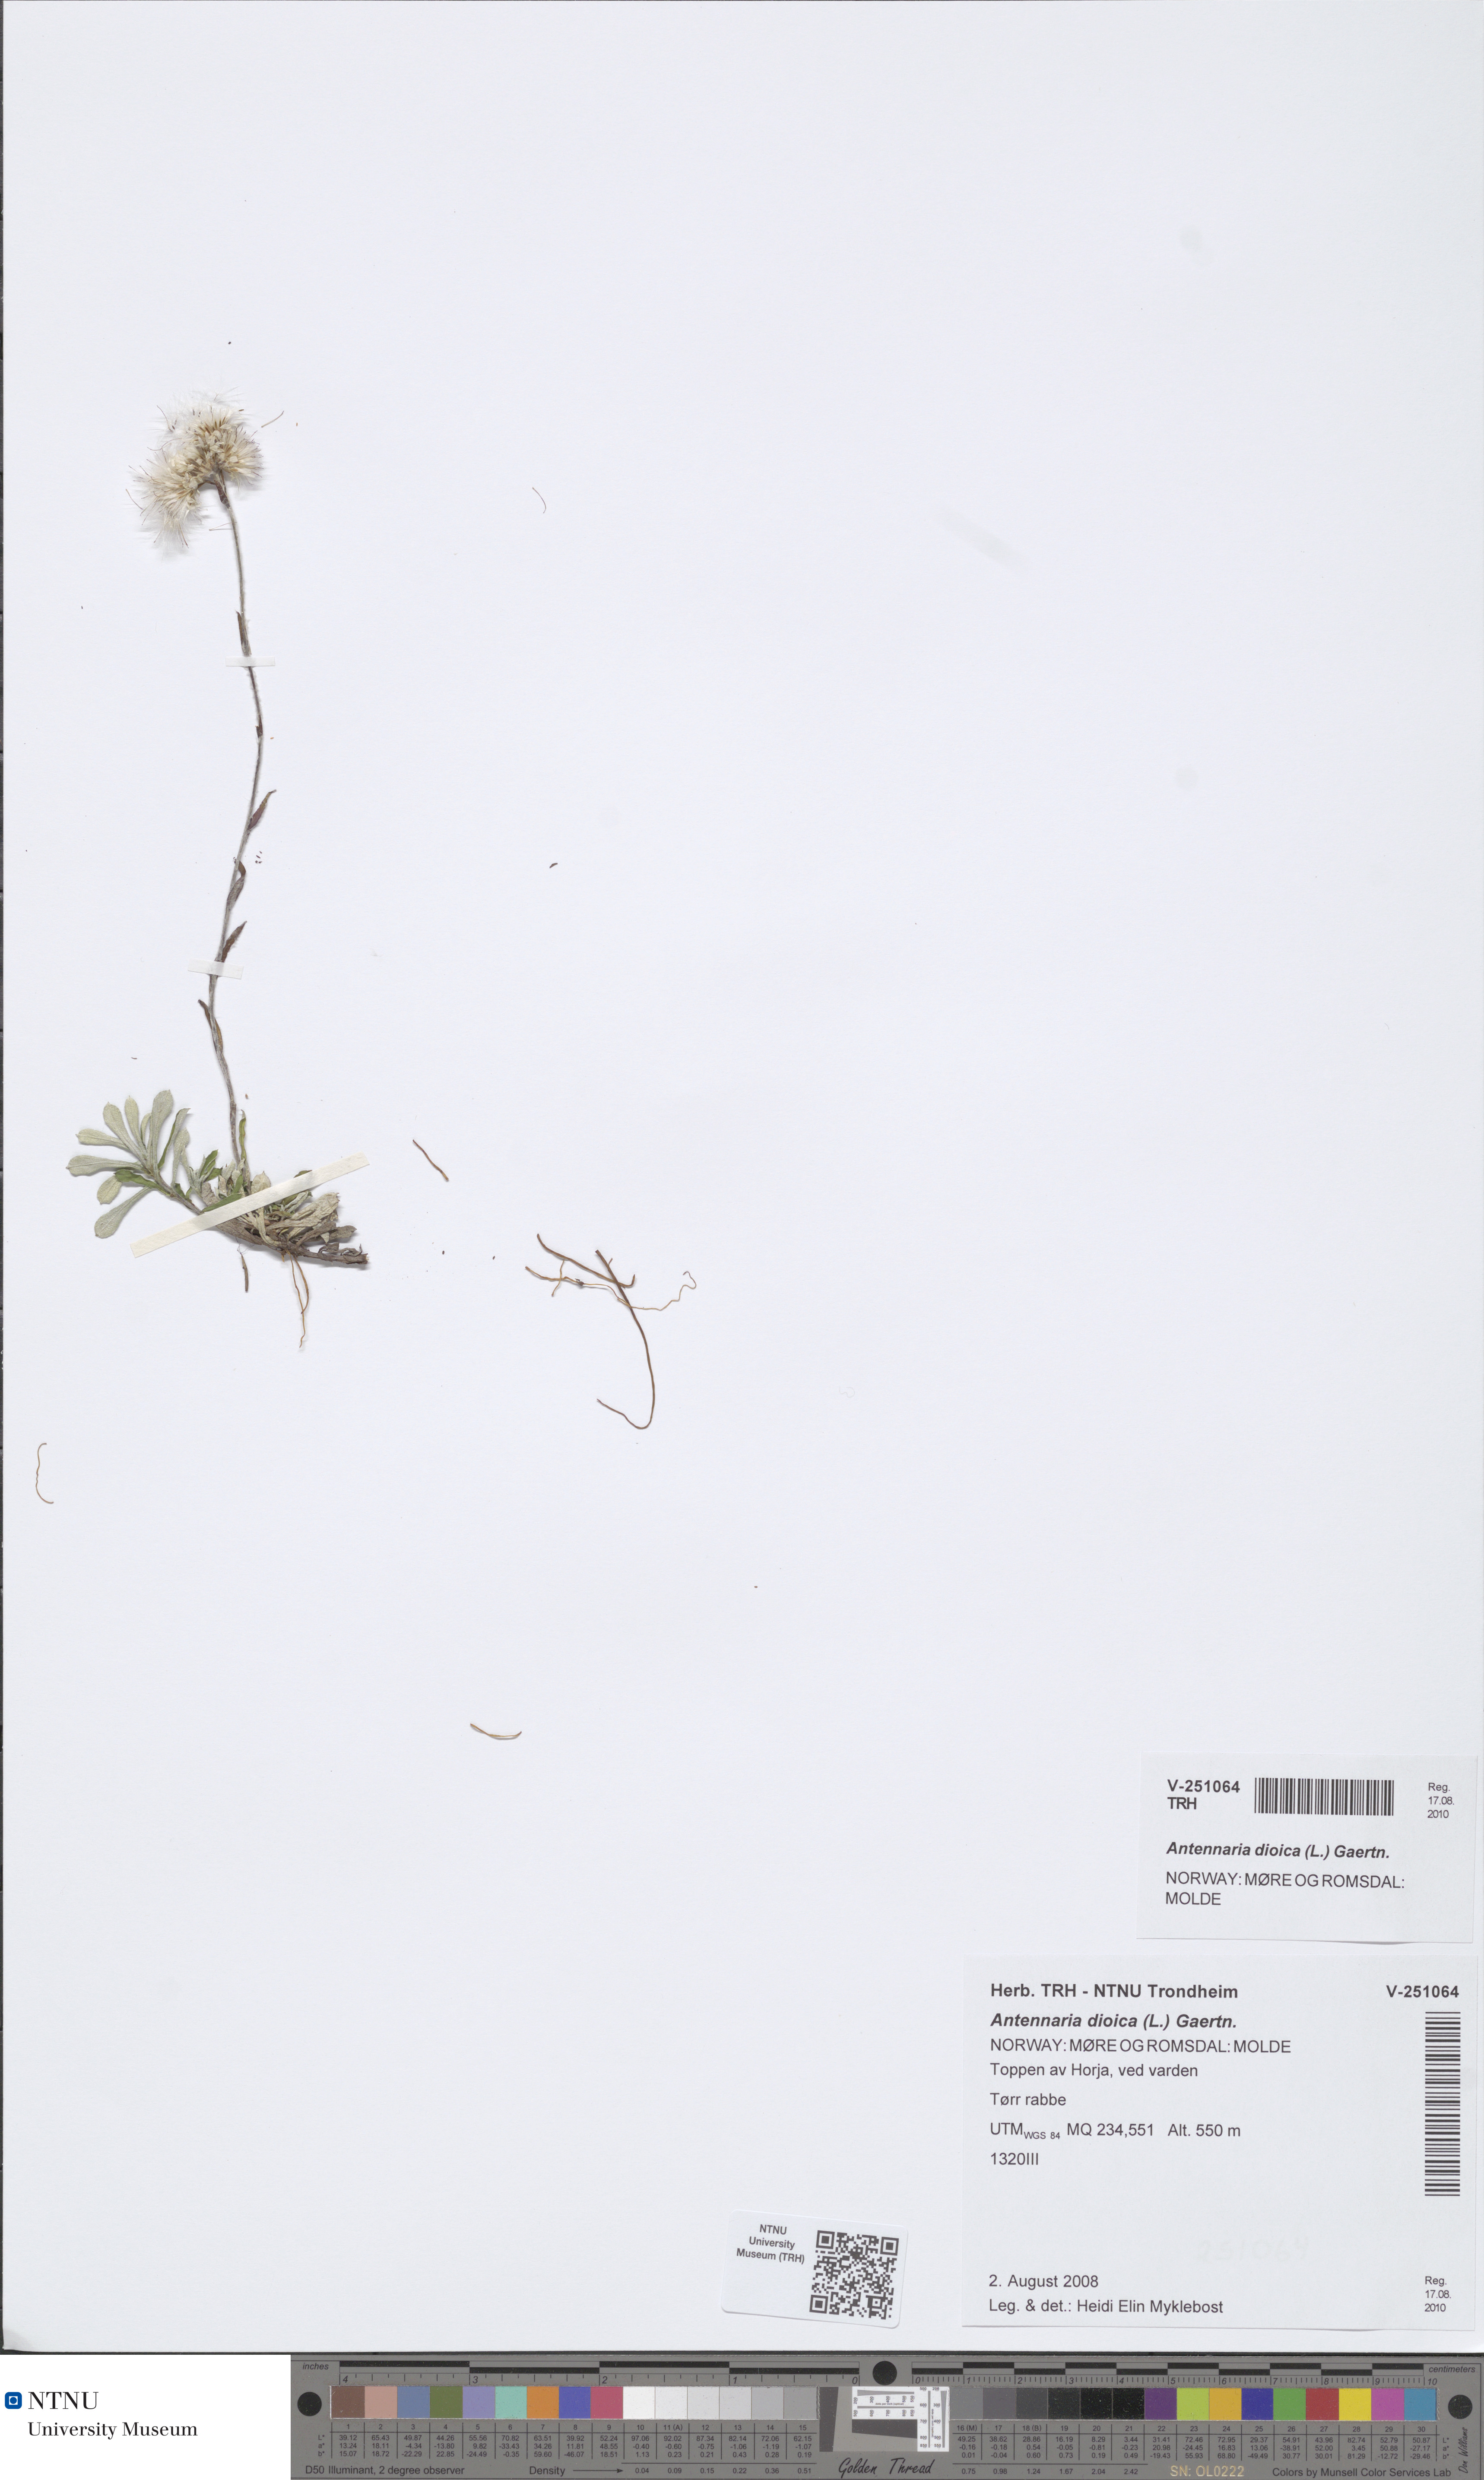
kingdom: Plantae
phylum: Tracheophyta
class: Magnoliopsida
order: Asterales
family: Asteraceae
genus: Antennaria
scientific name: Antennaria dioica
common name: Mountain everlasting
